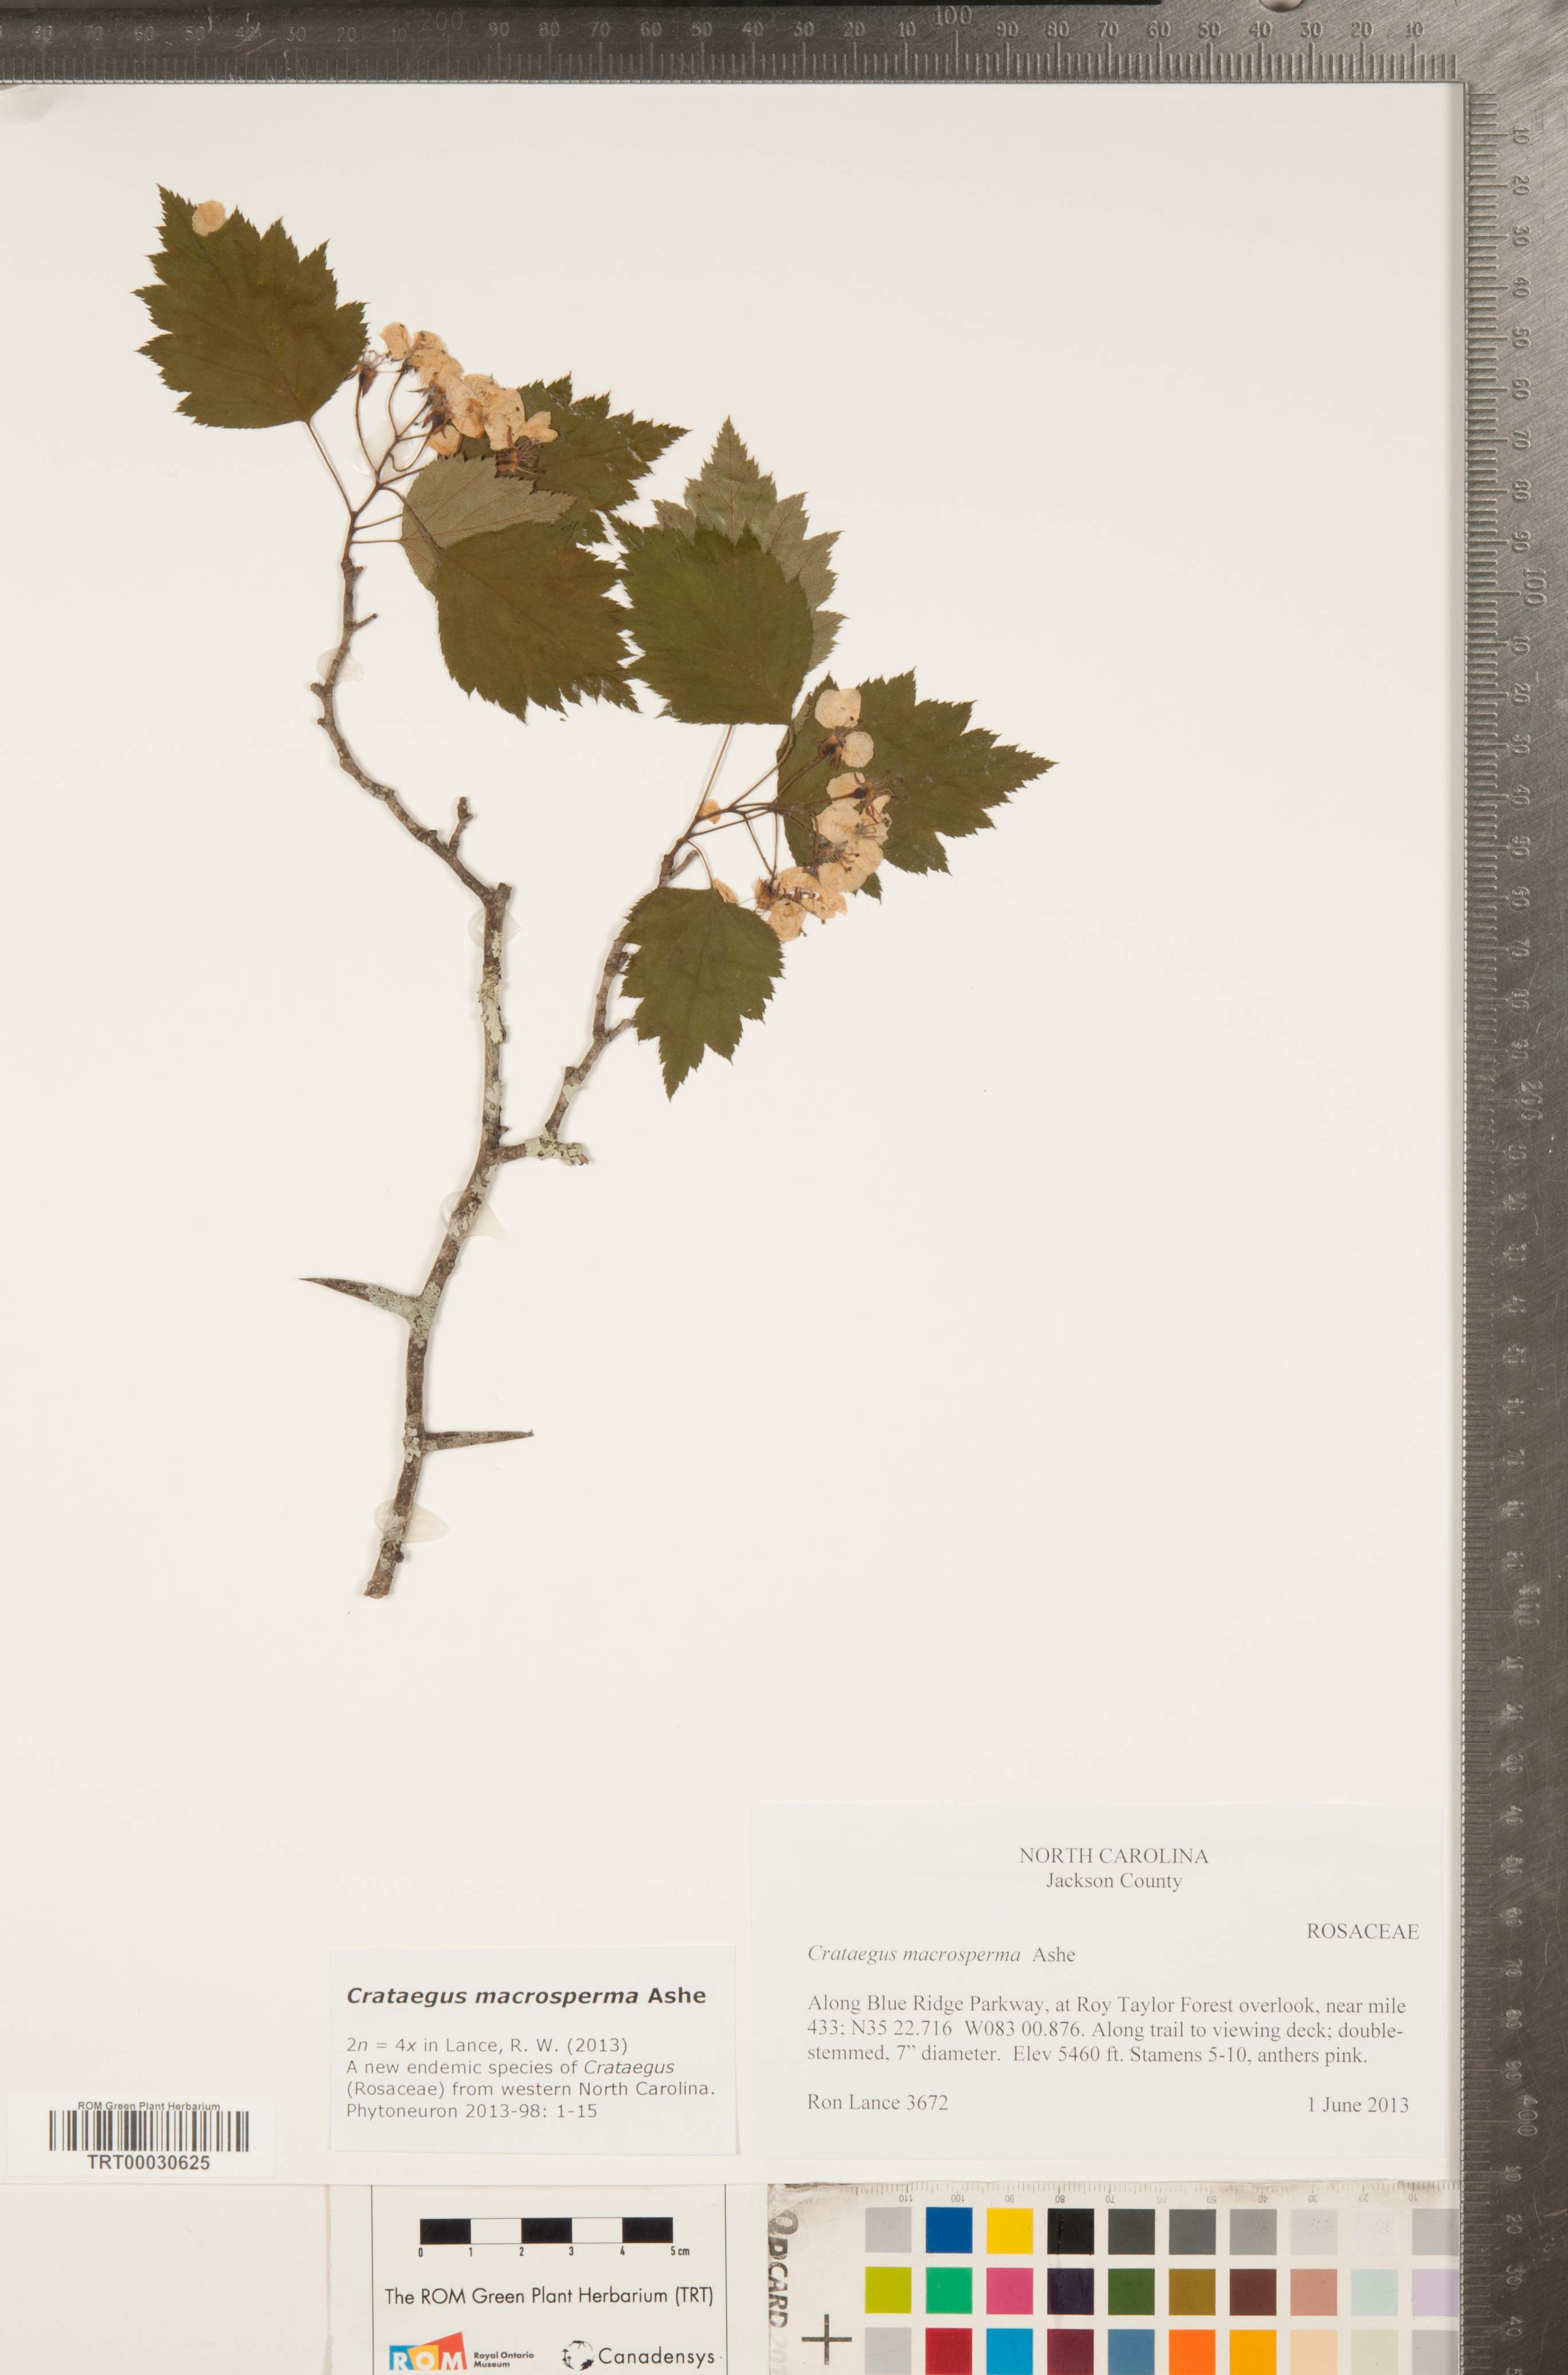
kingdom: Plantae
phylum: Tracheophyta
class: Magnoliopsida
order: Rosales
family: Rosaceae
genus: Crataegus
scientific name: Crataegus macrosperma
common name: Variable hawthorn
